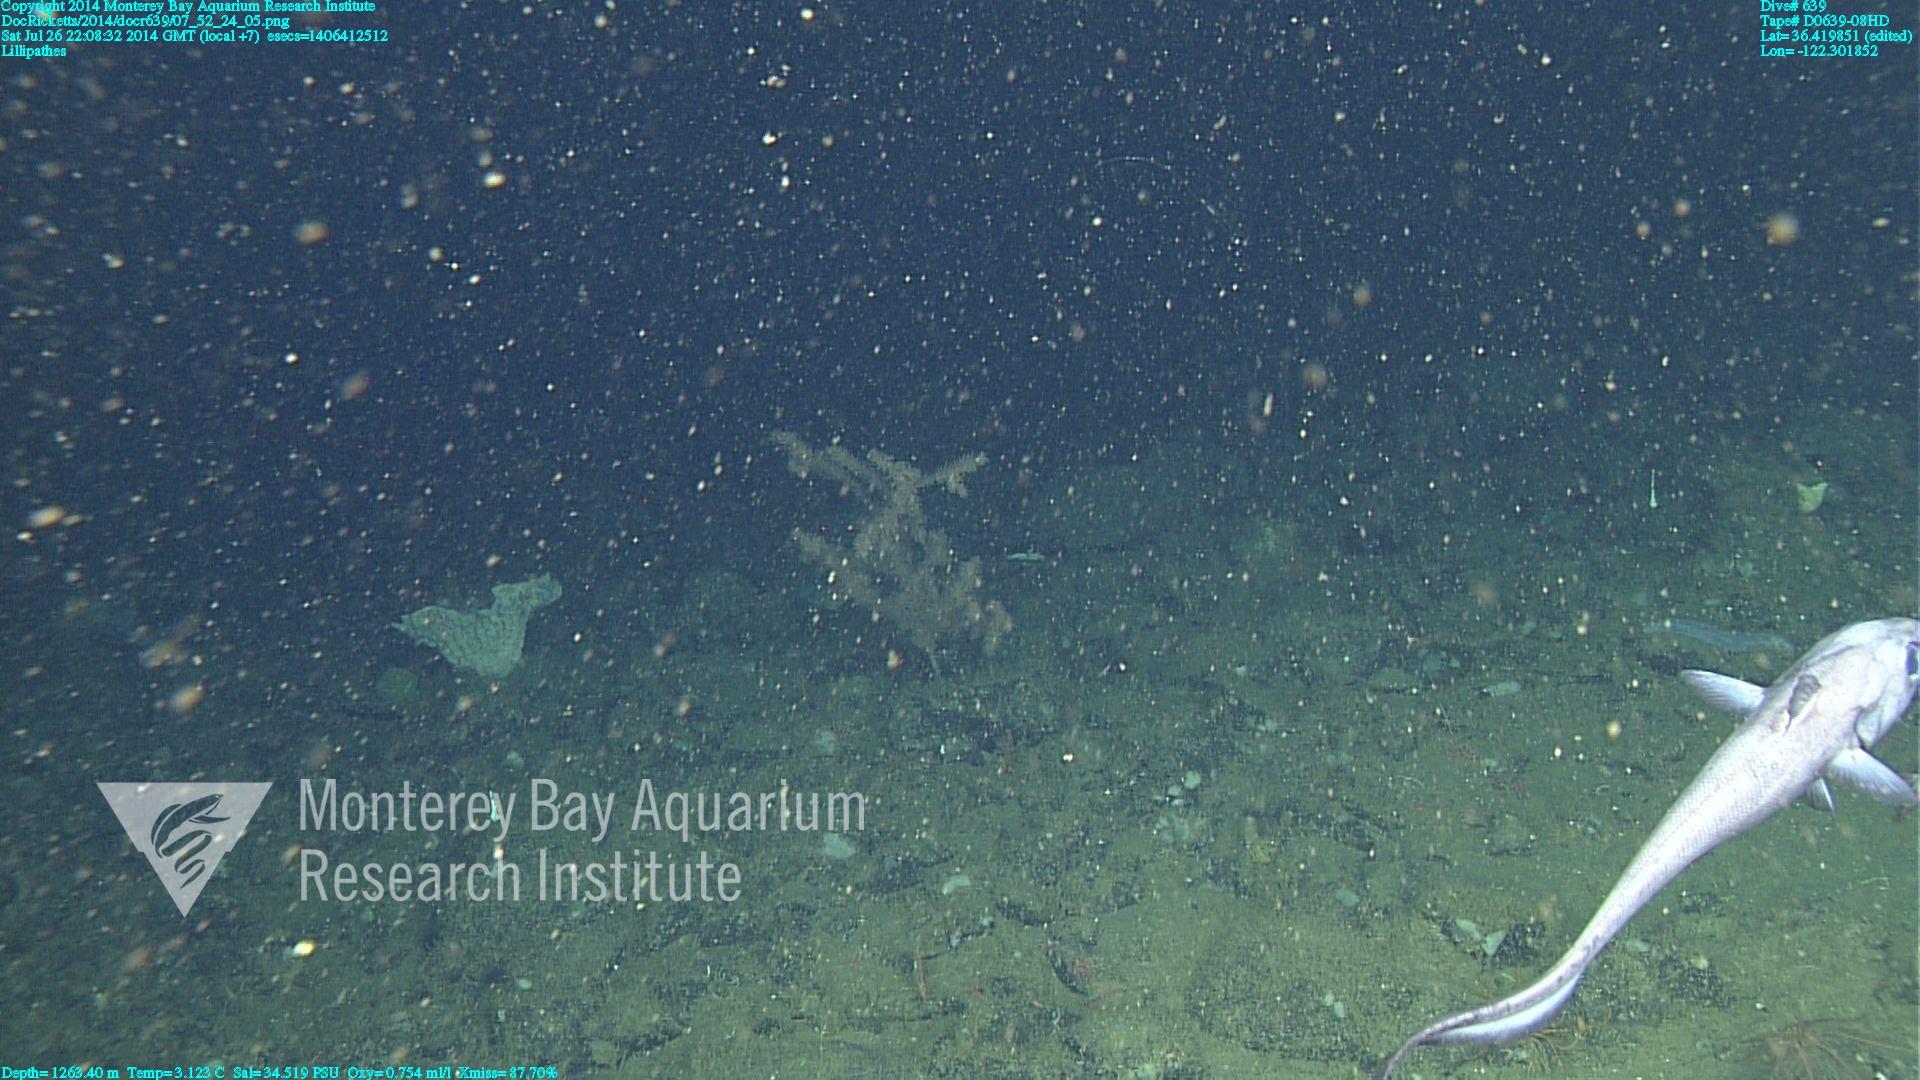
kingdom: Animalia
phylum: Cnidaria
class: Anthozoa
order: Antipatharia
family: Schizopathidae
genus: Lillipathes
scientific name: Lillipathes
